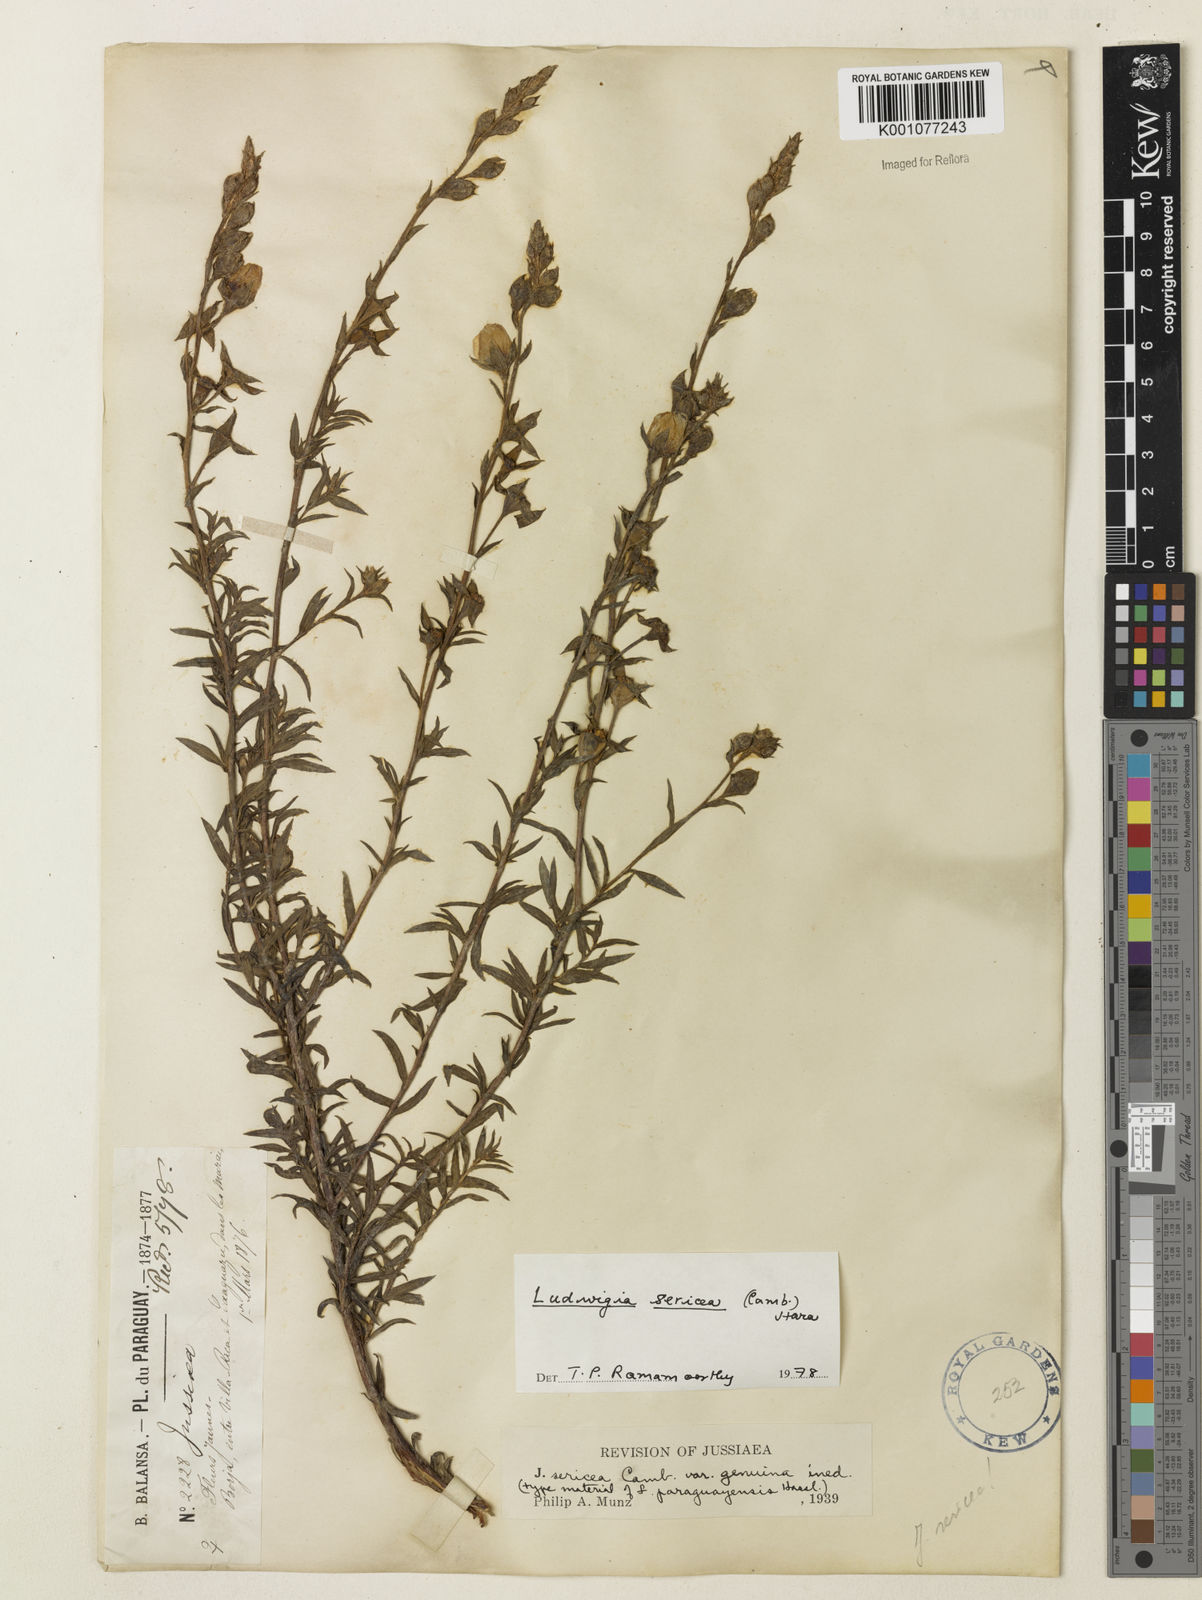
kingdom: Plantae
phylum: Tracheophyta
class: Magnoliopsida
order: Myrtales
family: Onagraceae
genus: Ludwigia
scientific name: Ludwigia sericea
